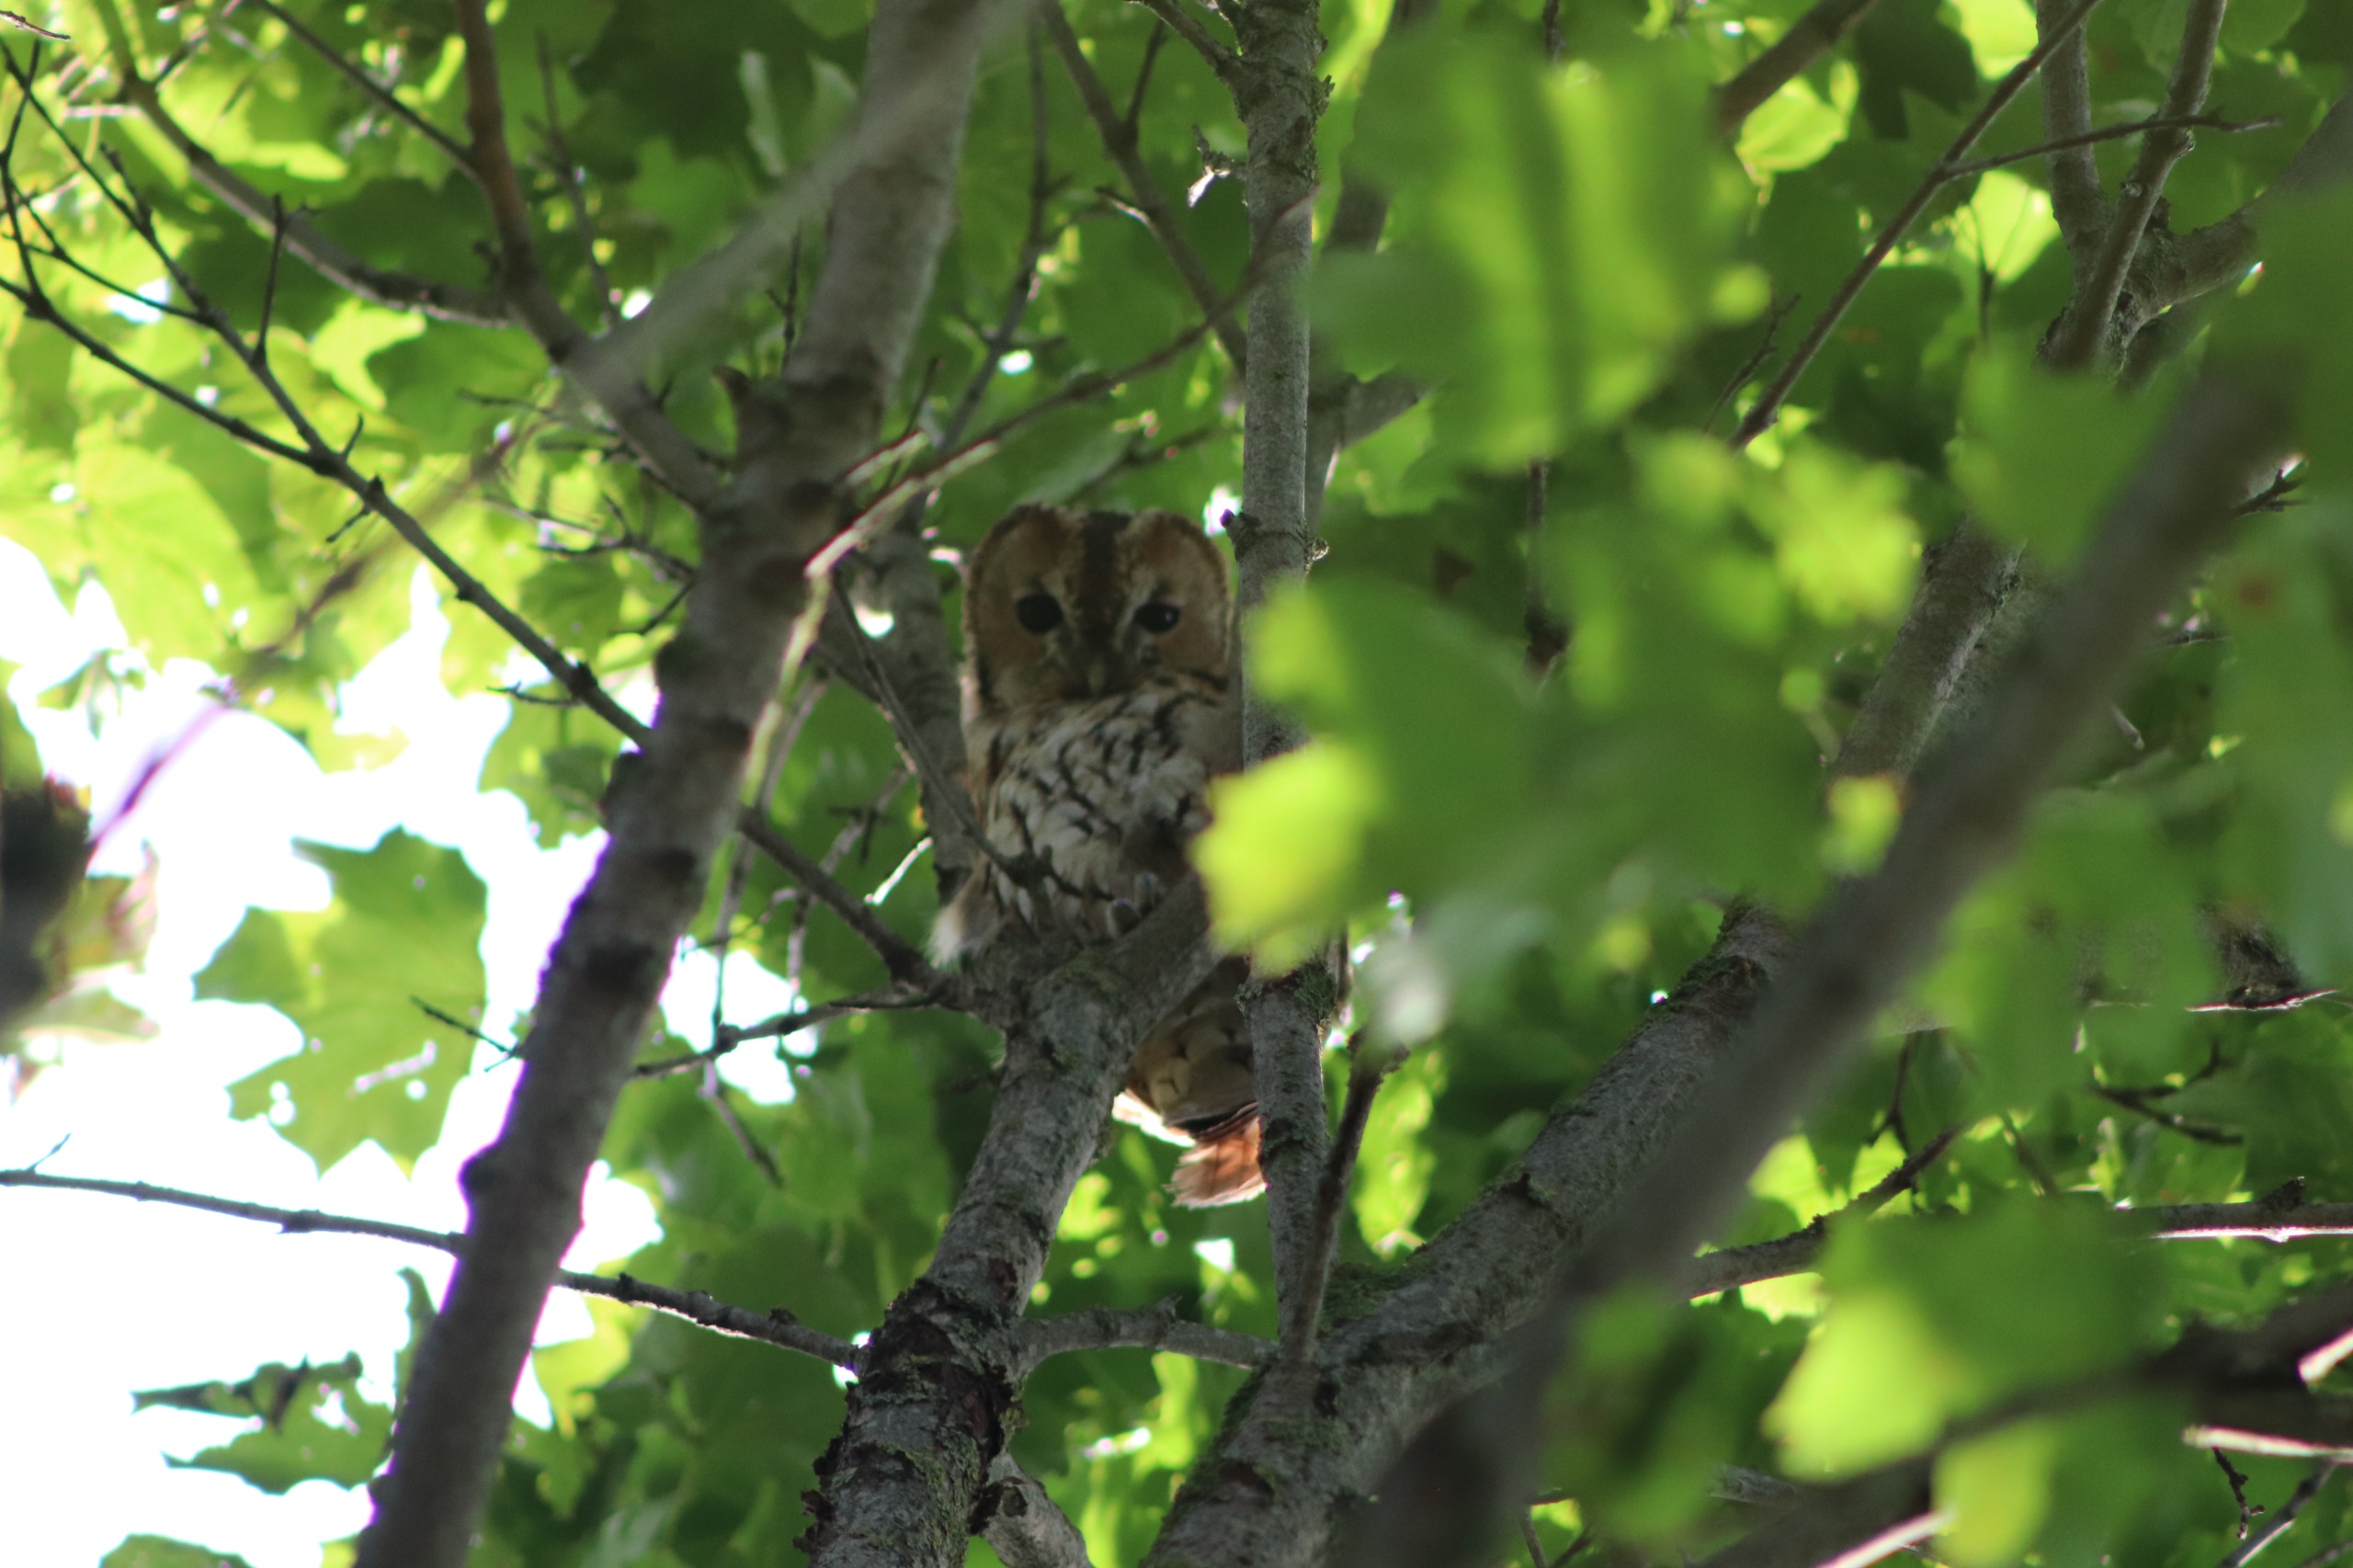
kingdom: Animalia
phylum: Chordata
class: Aves
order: Strigiformes
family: Strigidae
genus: Strix
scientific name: Strix aluco
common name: Natugle
